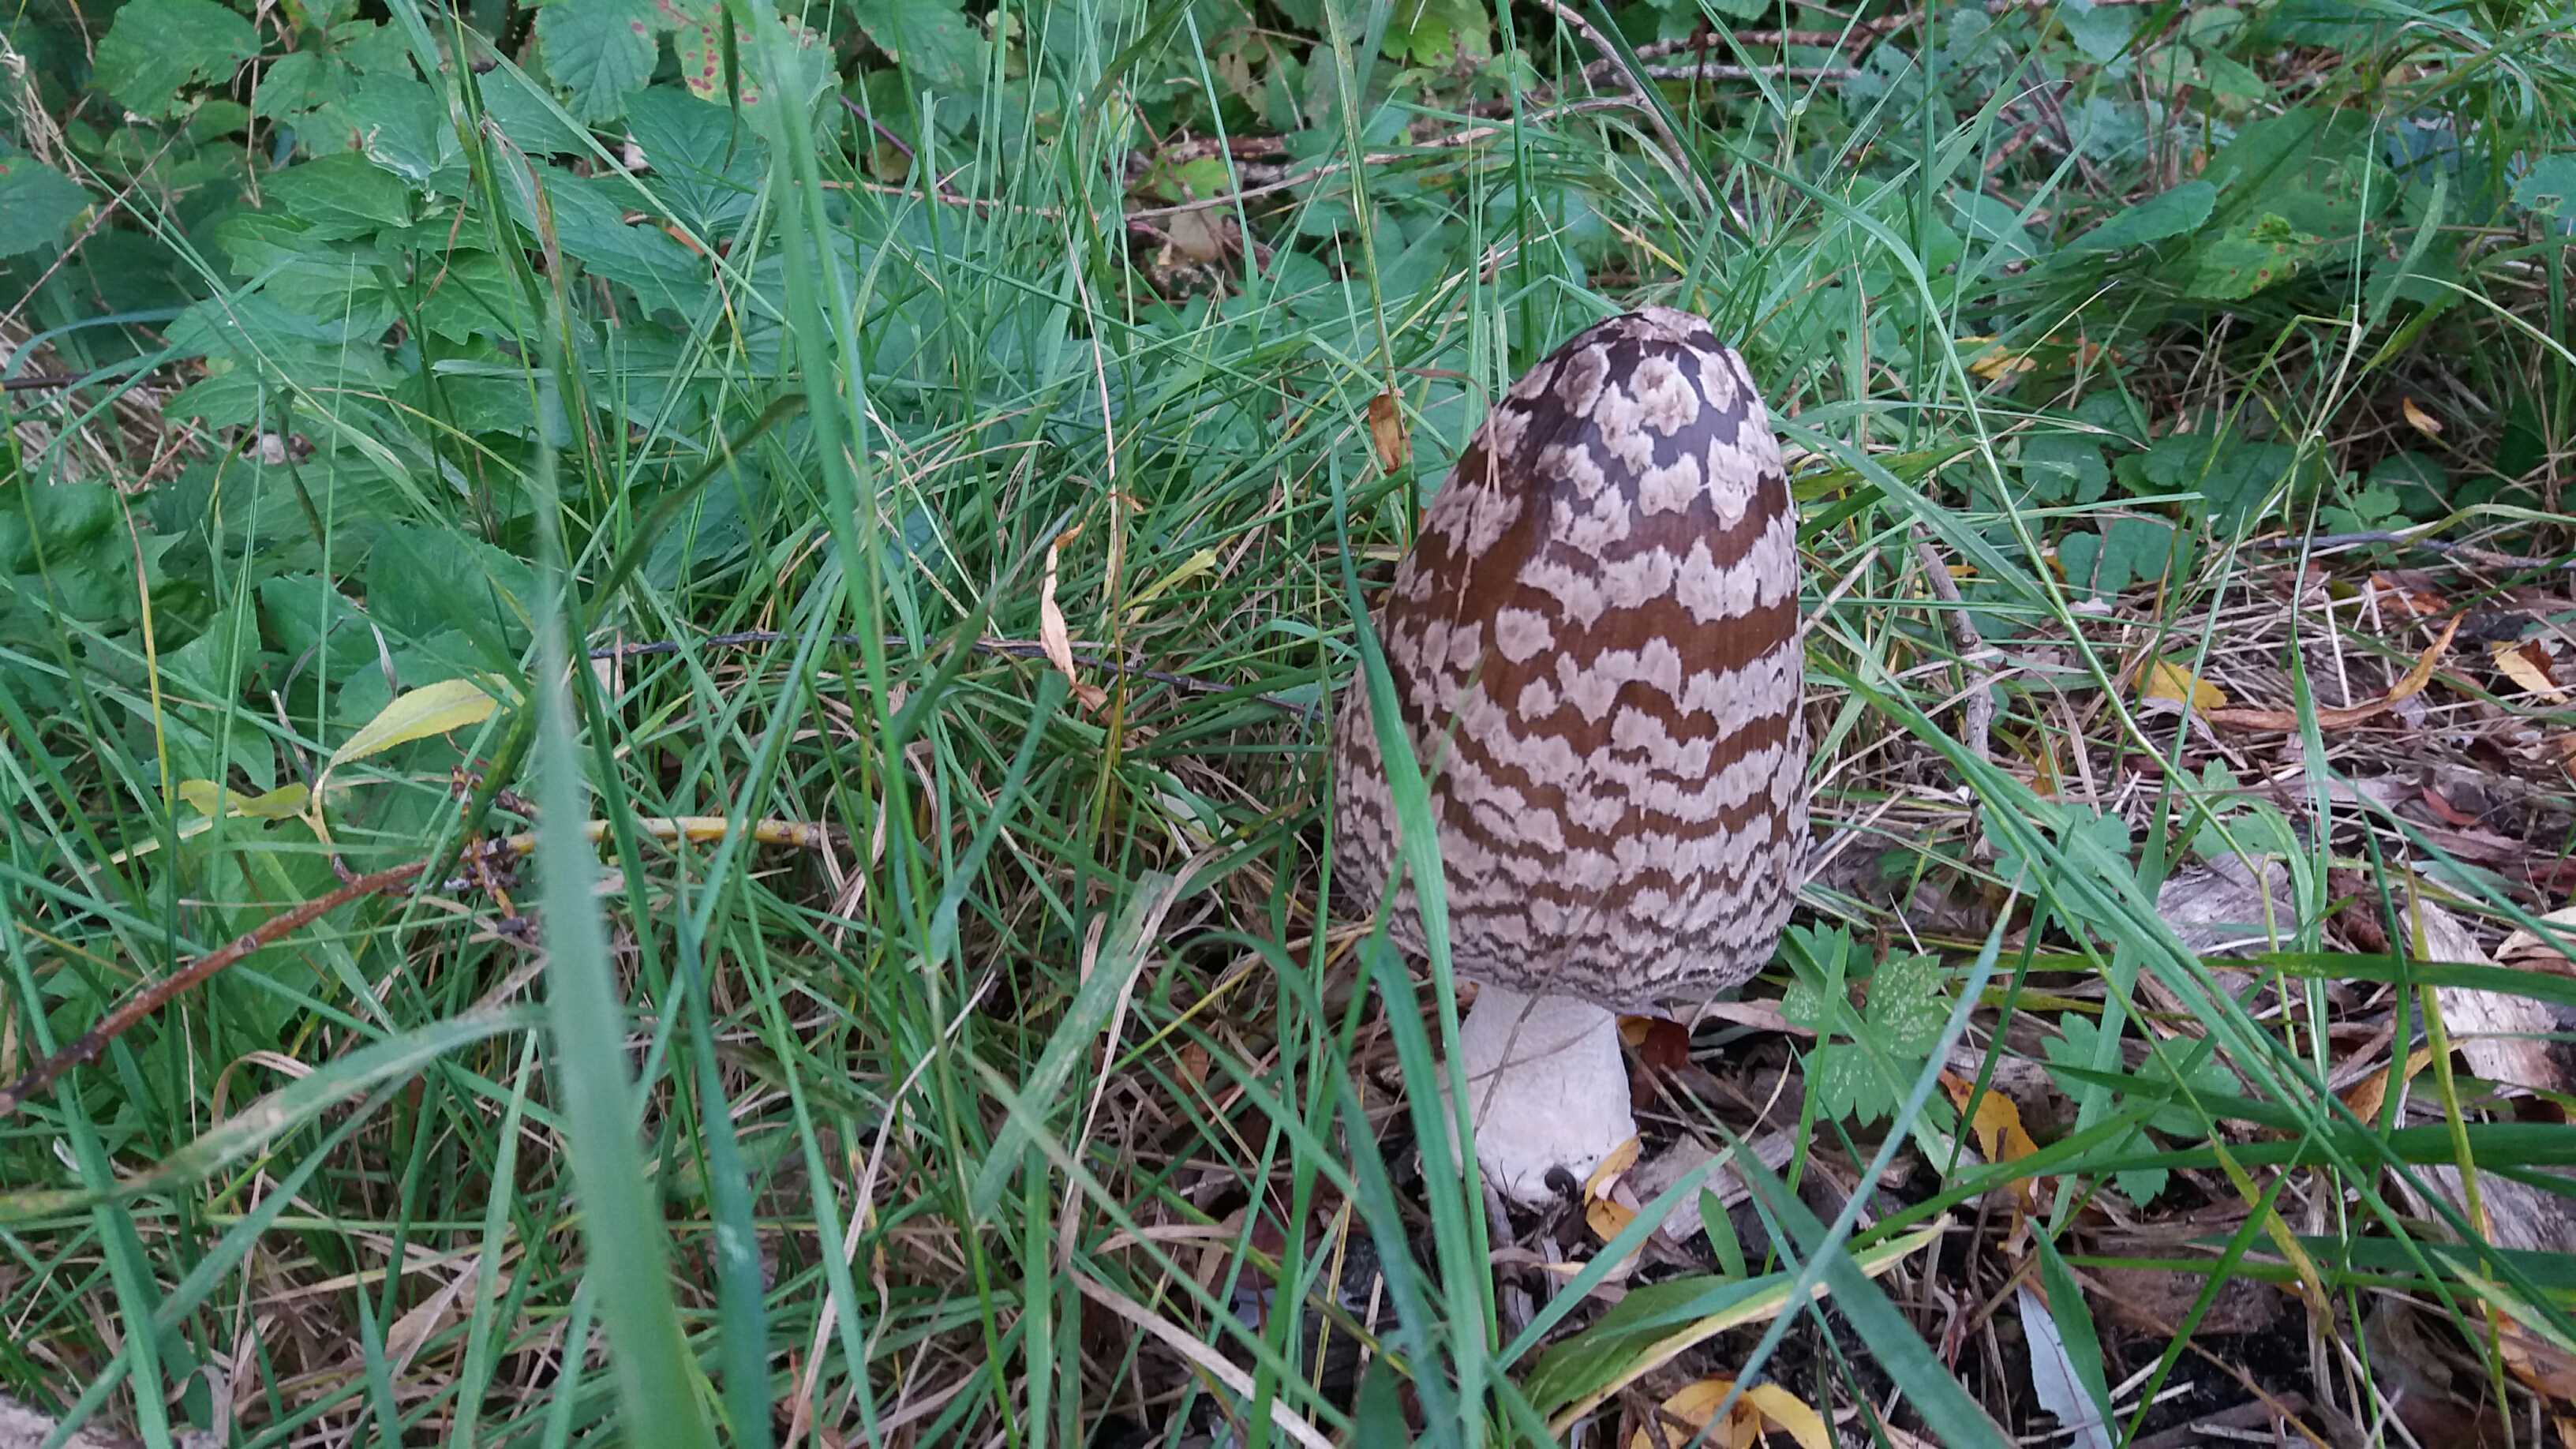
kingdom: Fungi
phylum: Basidiomycota
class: Agaricomycetes
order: Agaricales
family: Psathyrellaceae
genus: Coprinopsis
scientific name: Coprinopsis picacea
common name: skade-blækhat
